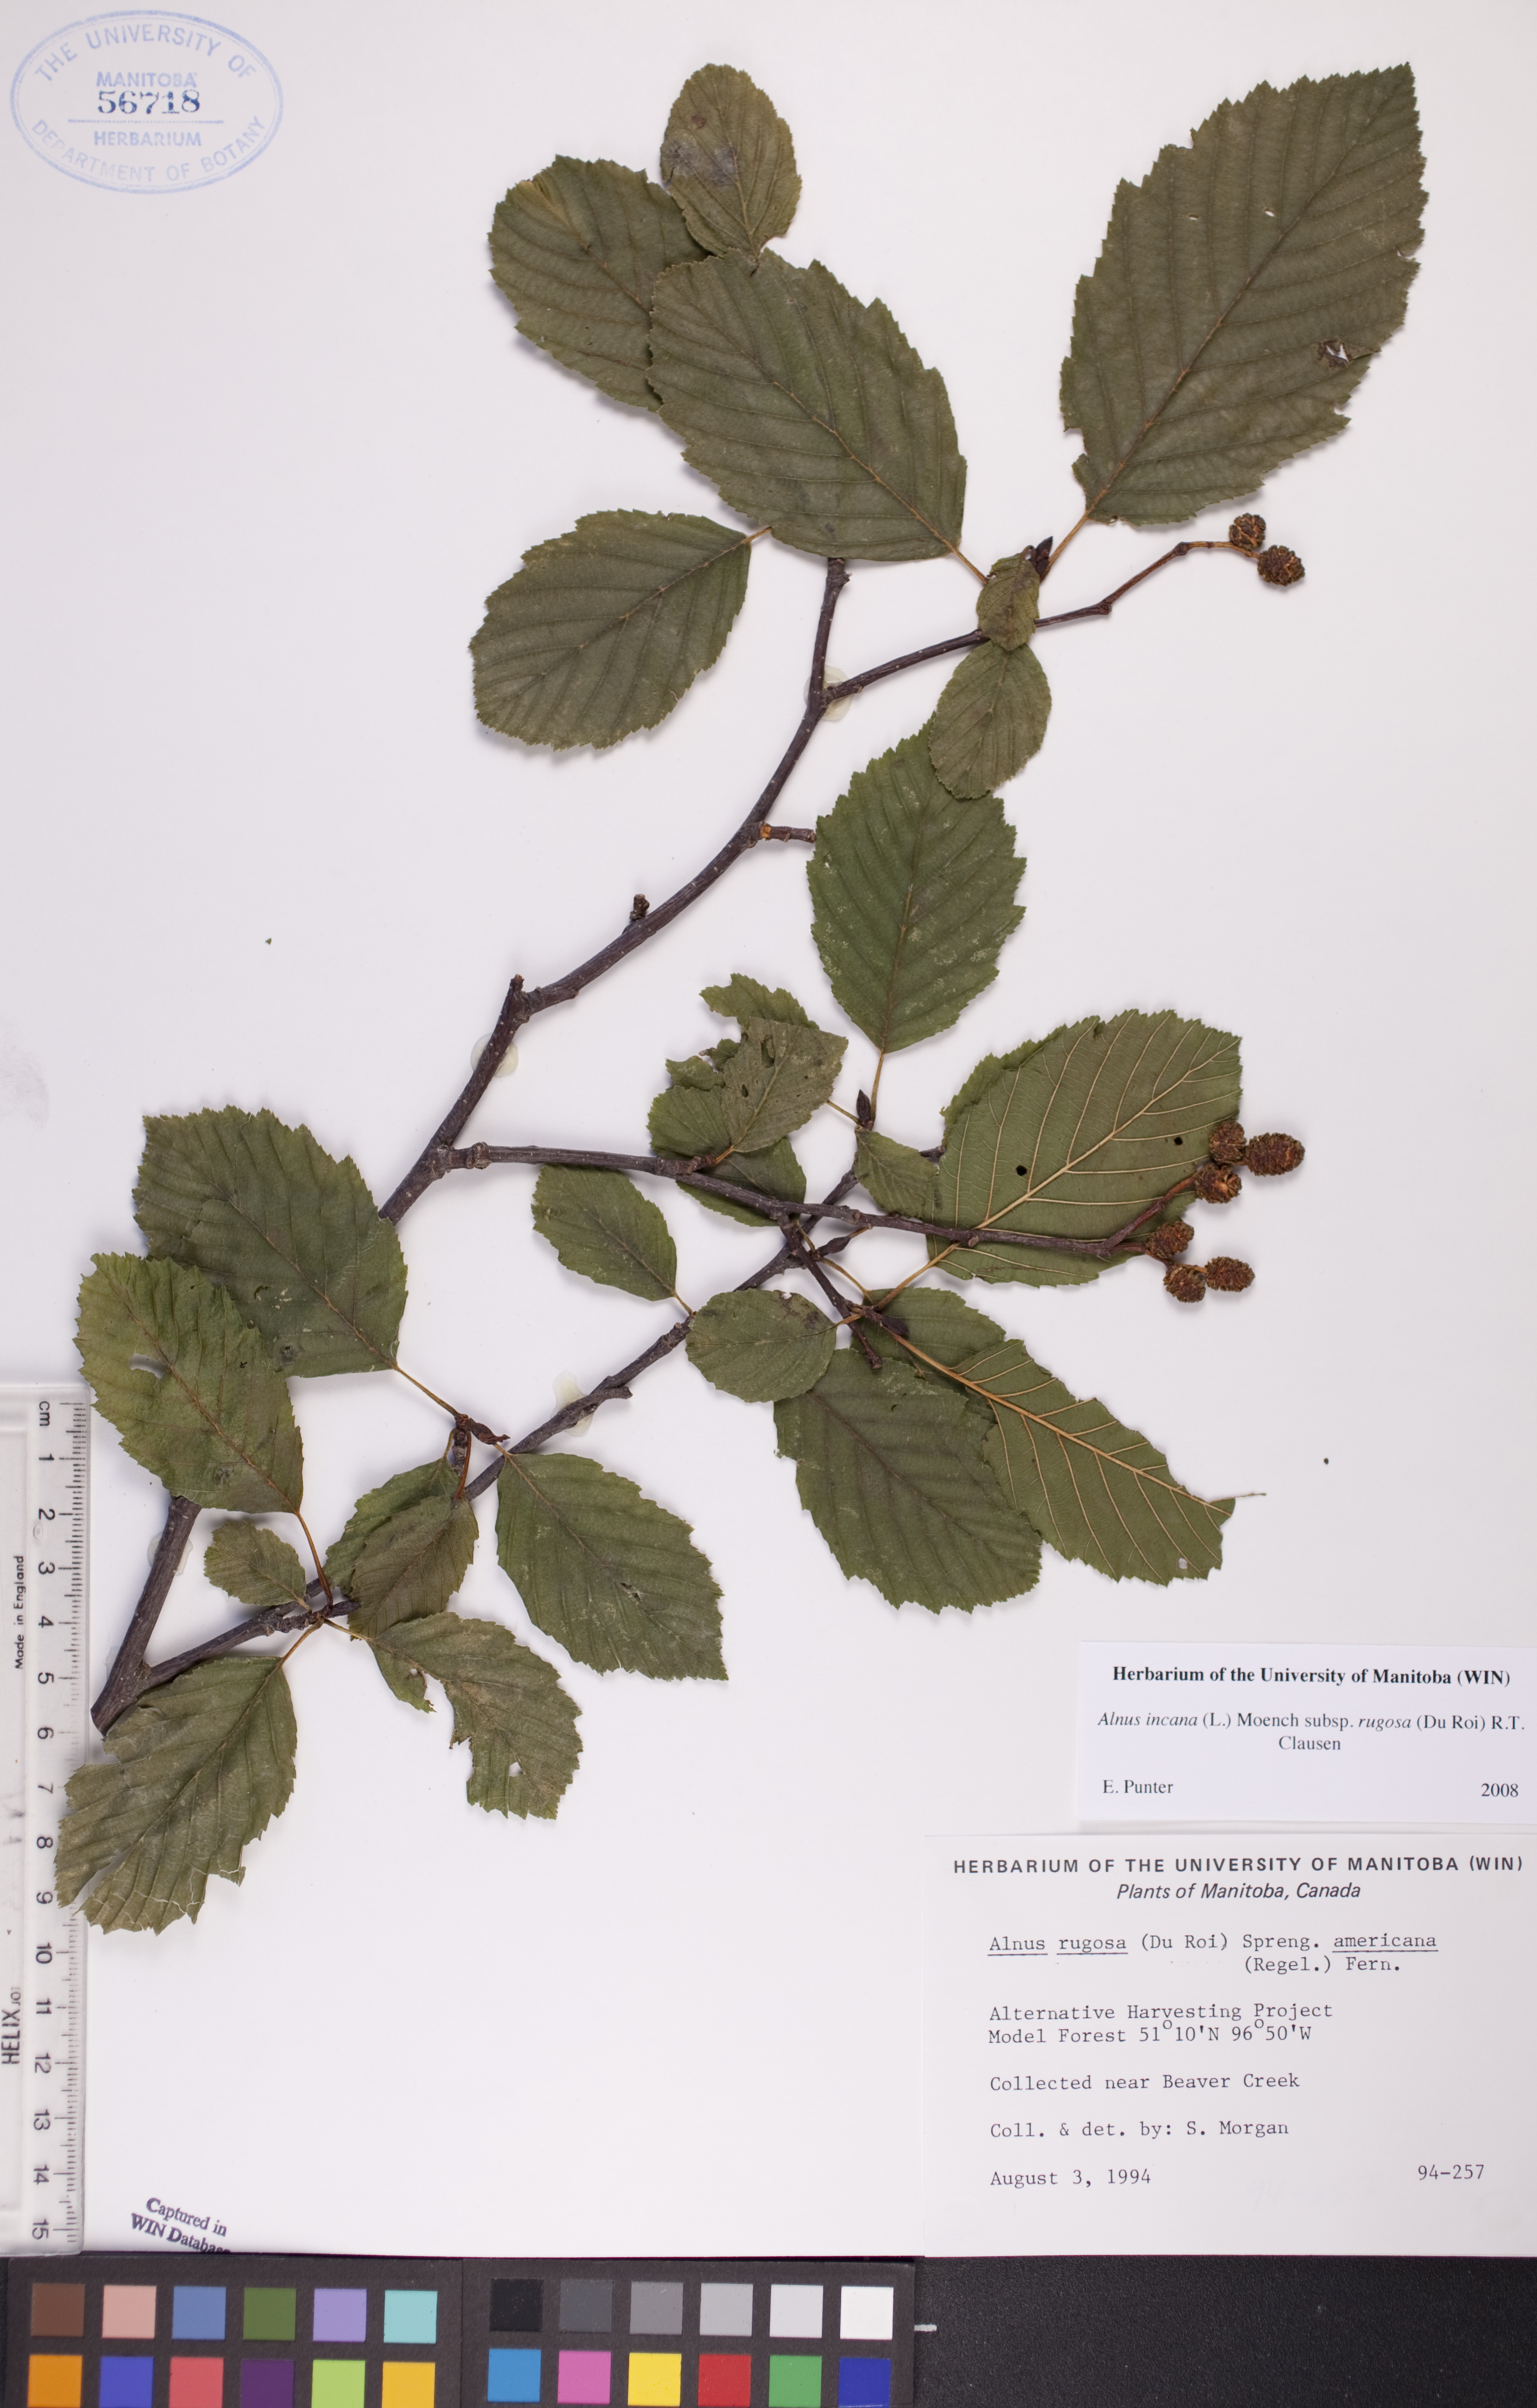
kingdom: Plantae
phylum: Tracheophyta
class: Magnoliopsida
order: Fagales
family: Betulaceae
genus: Alnus
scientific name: Alnus incana
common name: Grey alder
